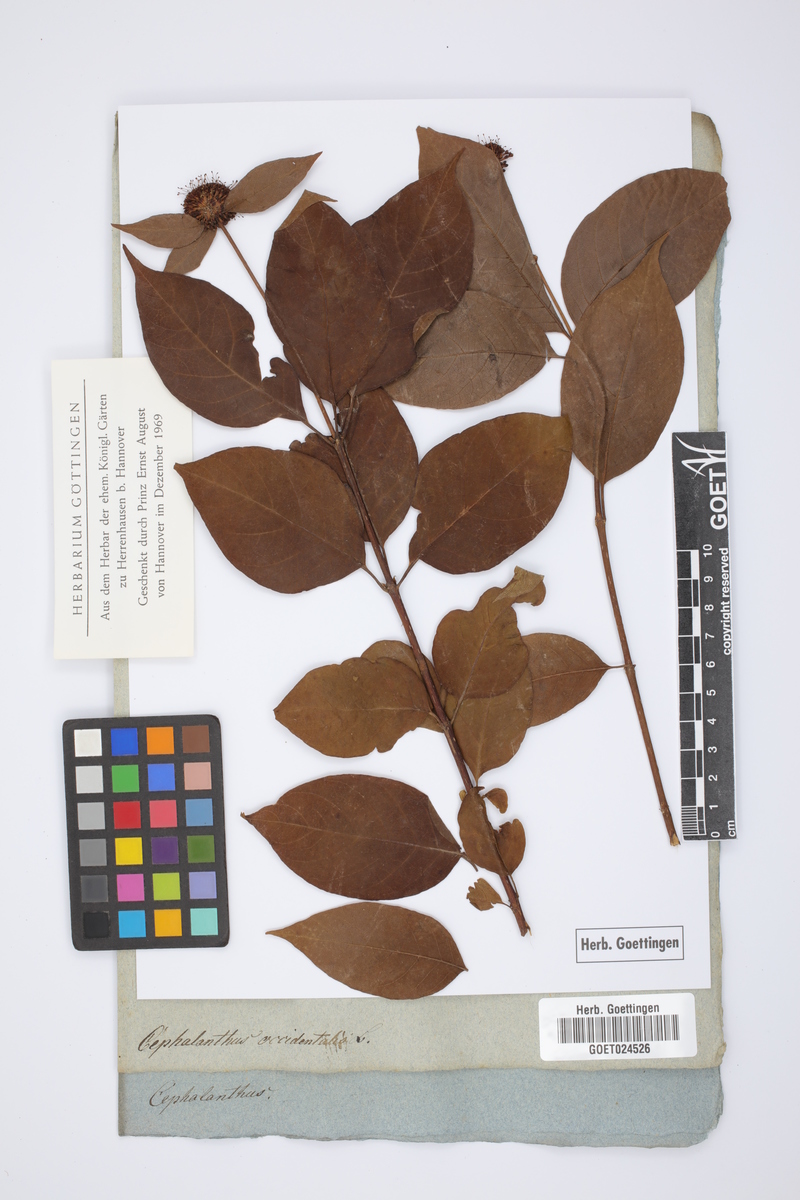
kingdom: Plantae
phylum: Tracheophyta
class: Magnoliopsida
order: Gentianales
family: Rubiaceae
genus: Cephalanthus
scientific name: Cephalanthus occidentalis
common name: Button-willow
